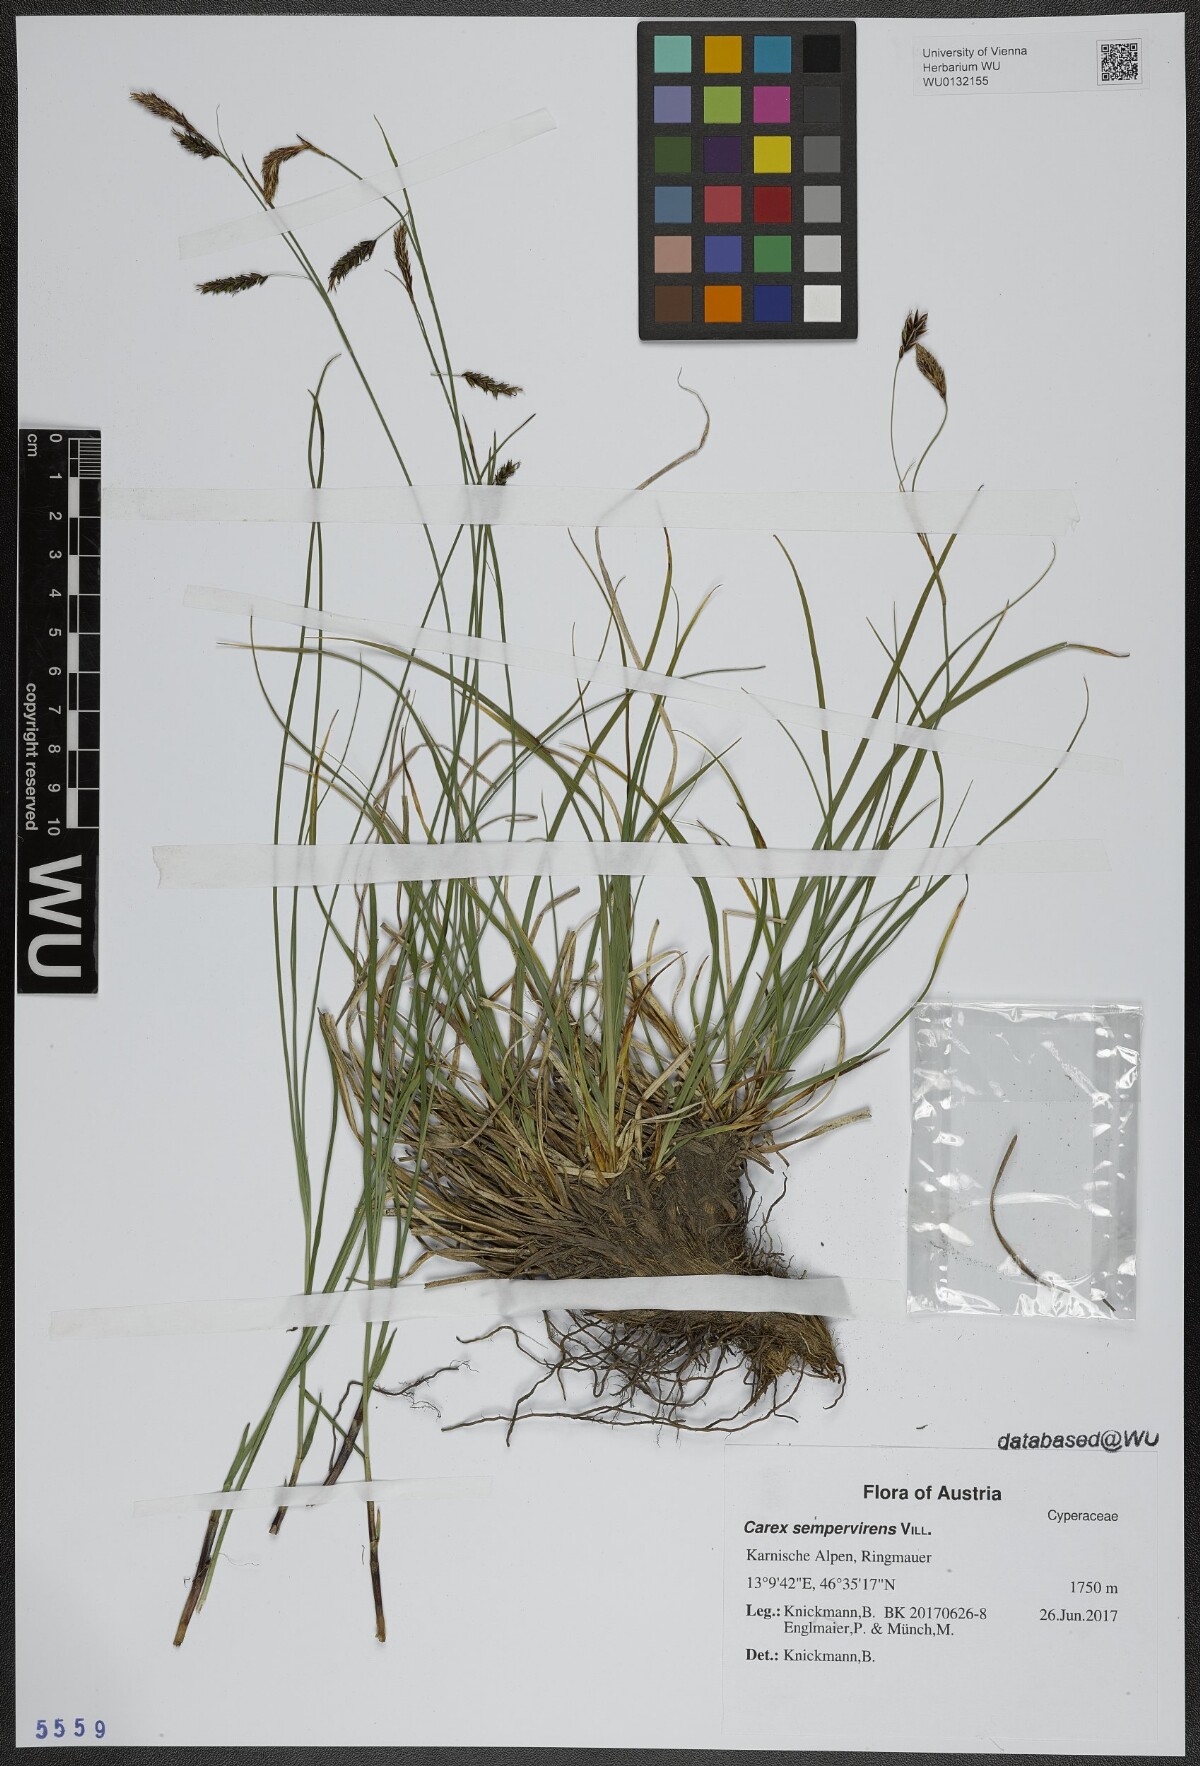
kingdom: Plantae
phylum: Tracheophyta
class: Liliopsida
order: Poales
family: Cyperaceae
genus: Carex
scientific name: Carex sempervirens
